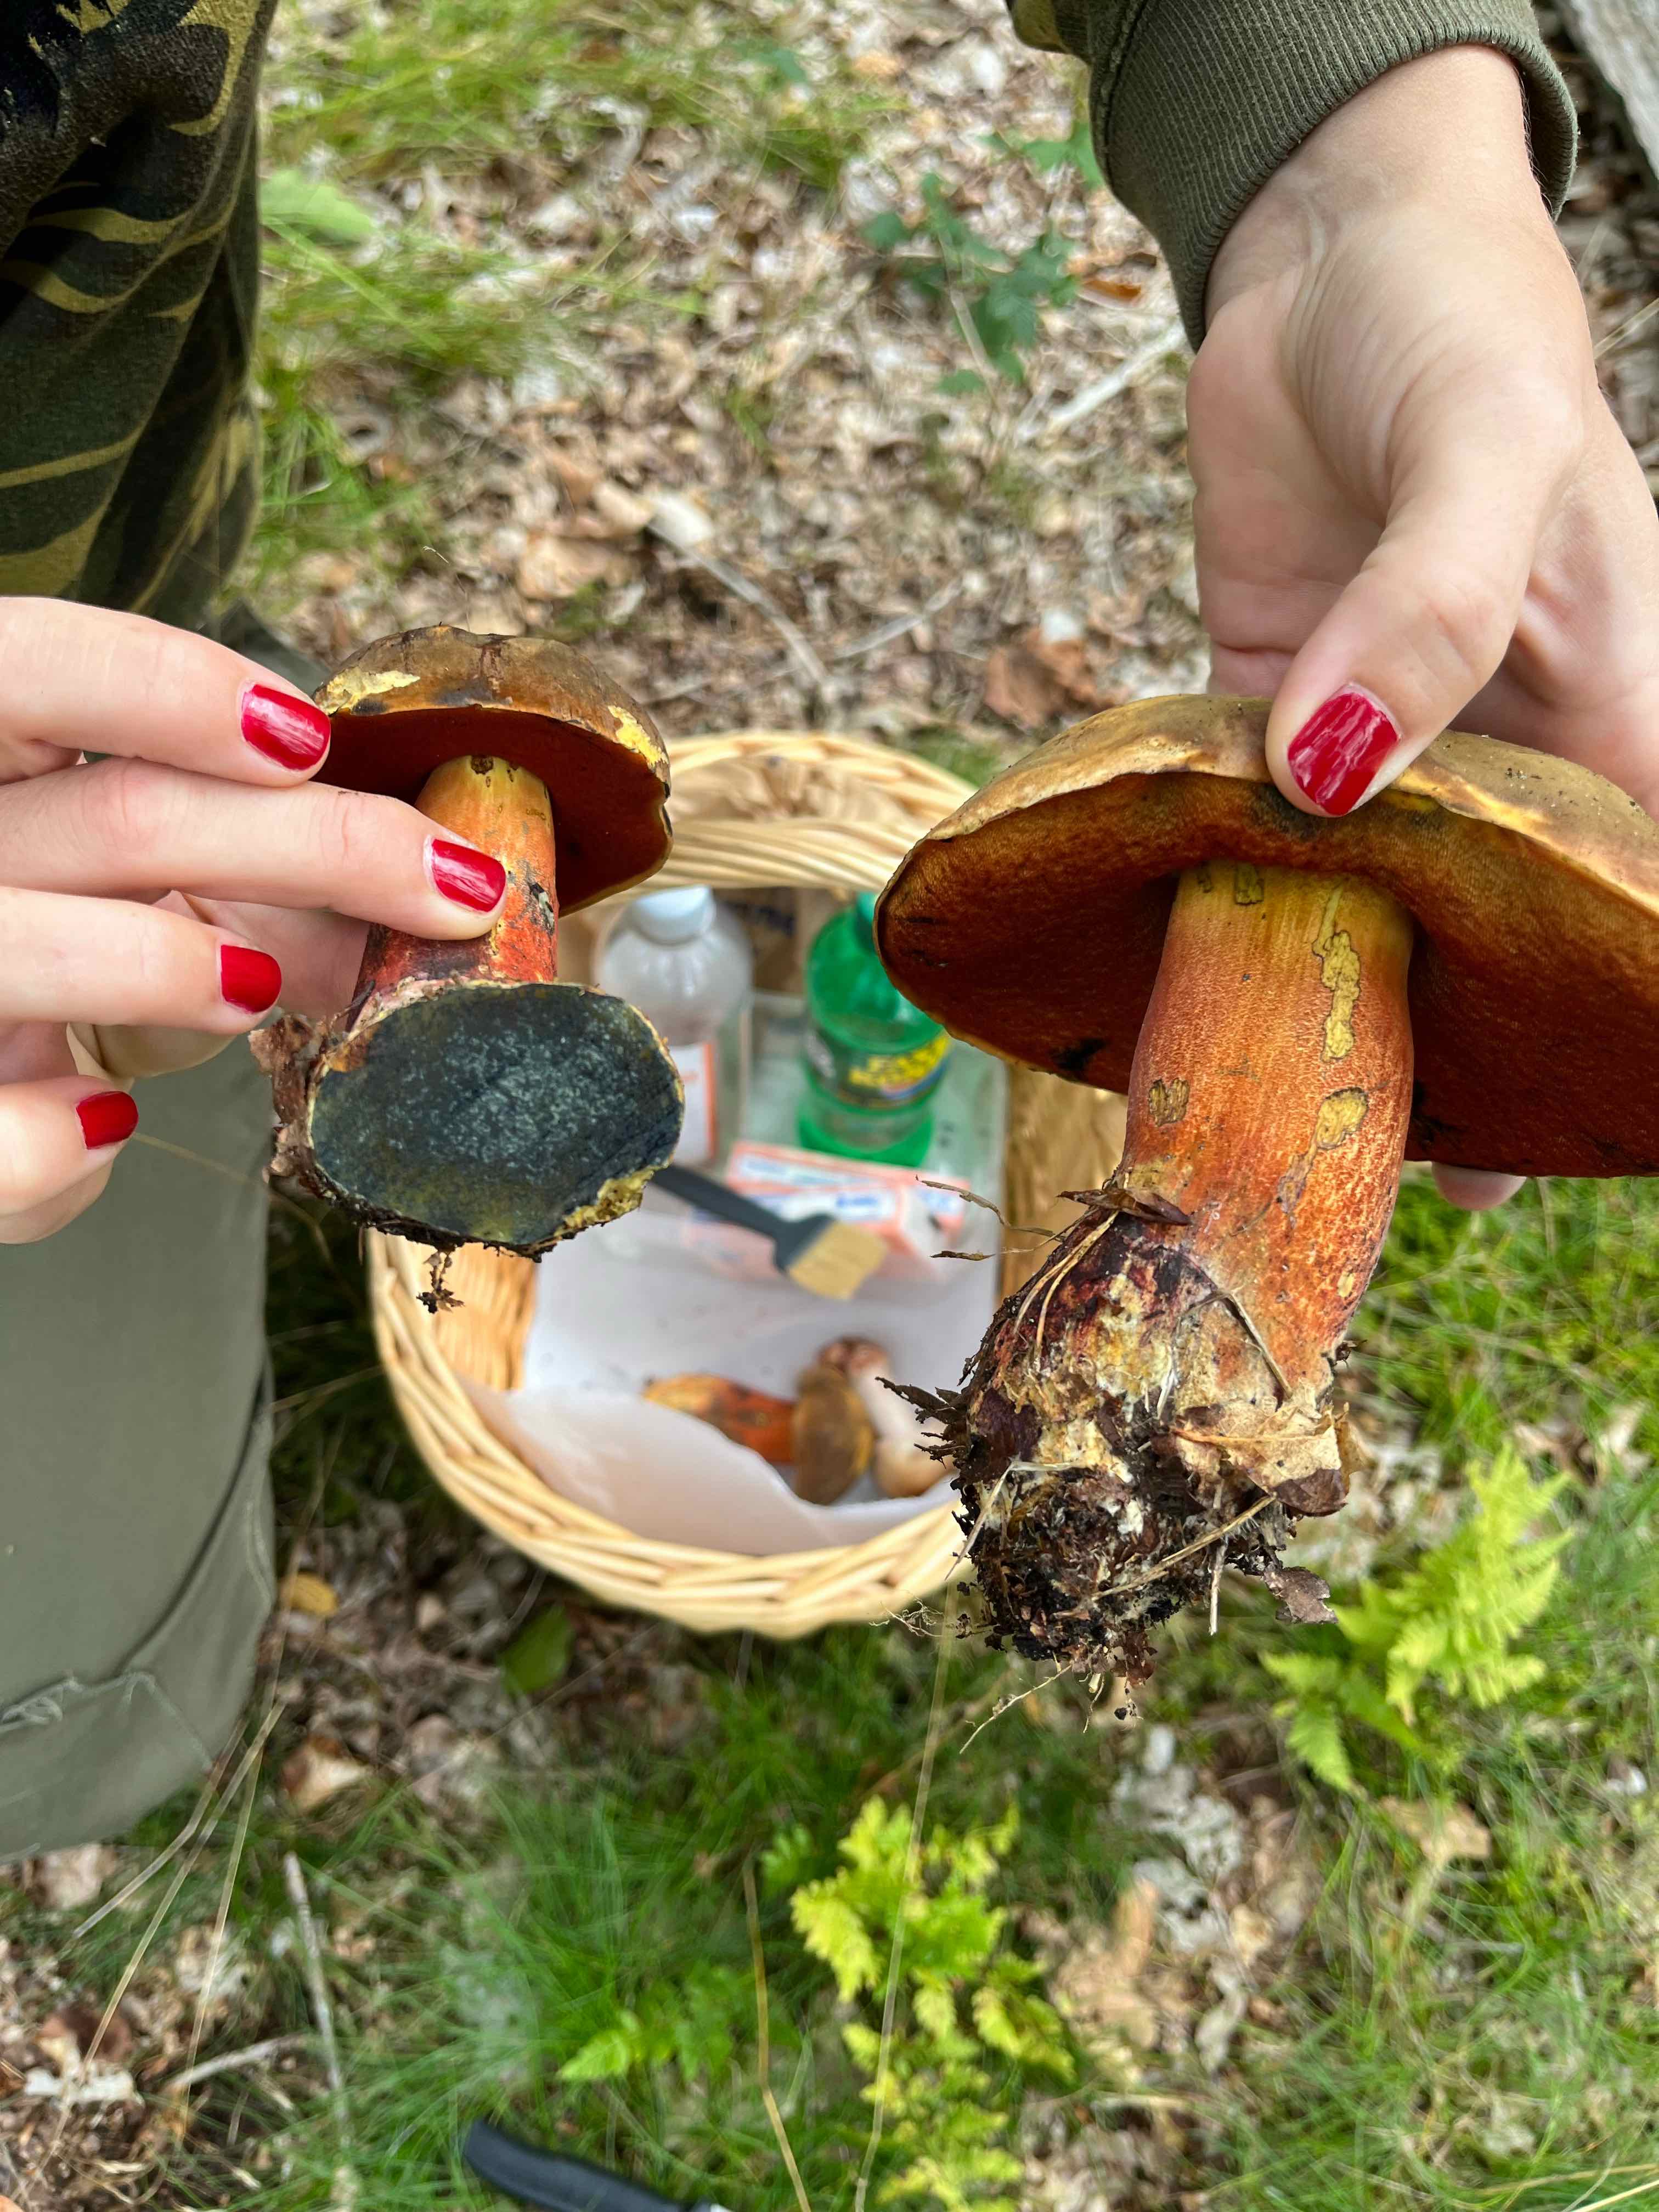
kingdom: Fungi
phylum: Basidiomycota
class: Agaricomycetes
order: Boletales
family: Boletaceae
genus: Neoboletus
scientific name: Neoboletus erythropus
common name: punktstokket indigorørhat
